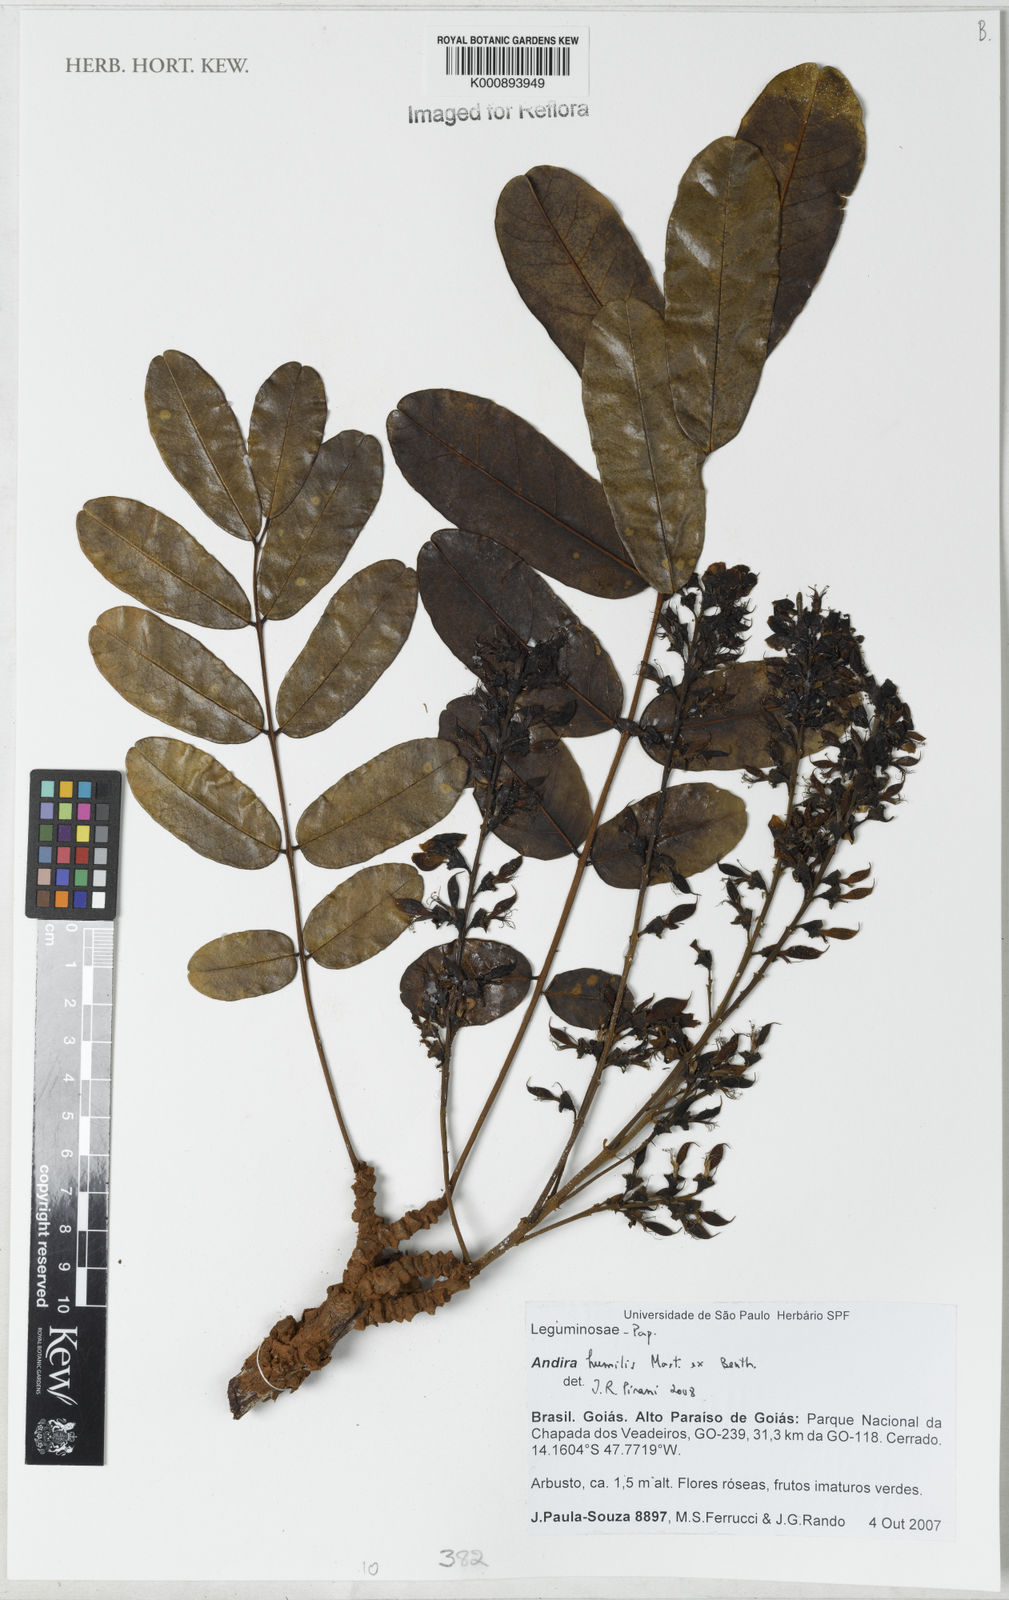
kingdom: Plantae
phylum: Tracheophyta
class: Magnoliopsida
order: Fabales
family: Fabaceae
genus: Andira
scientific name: Andira humilis
